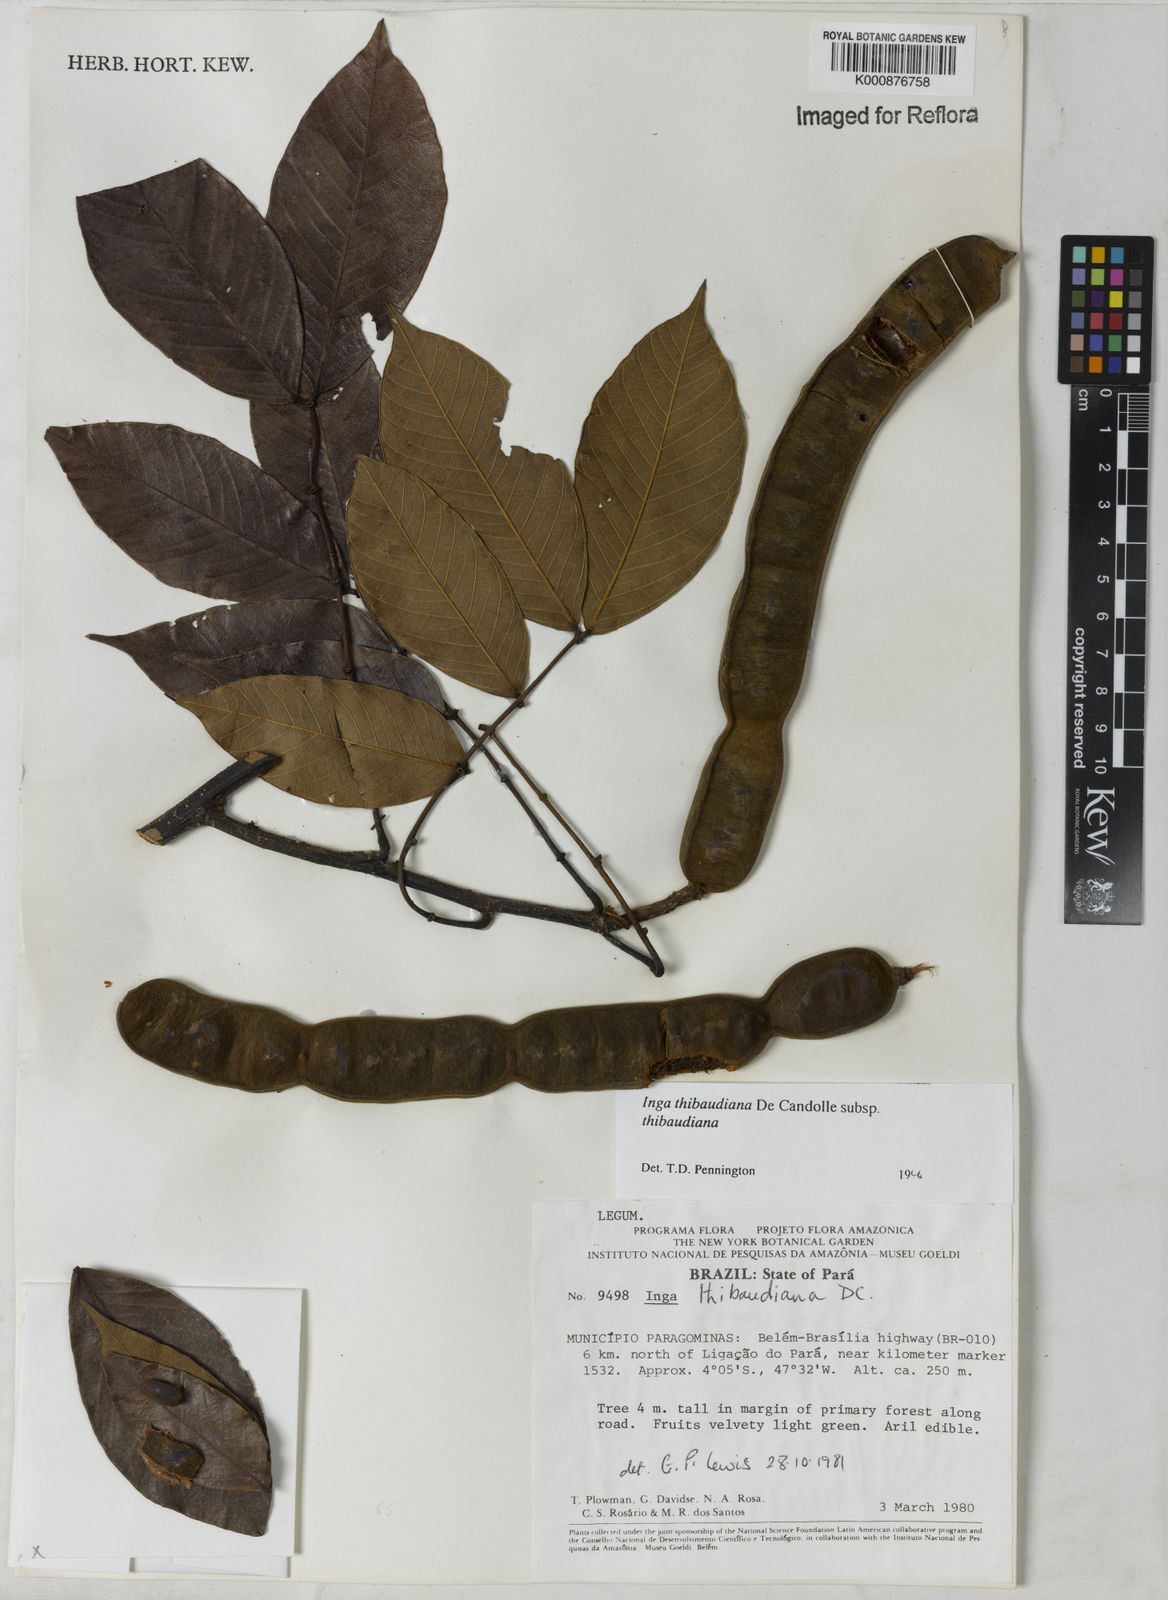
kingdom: Plantae
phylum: Tracheophyta
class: Magnoliopsida
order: Fabales
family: Fabaceae
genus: Inga
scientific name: Inga thibaudiana
